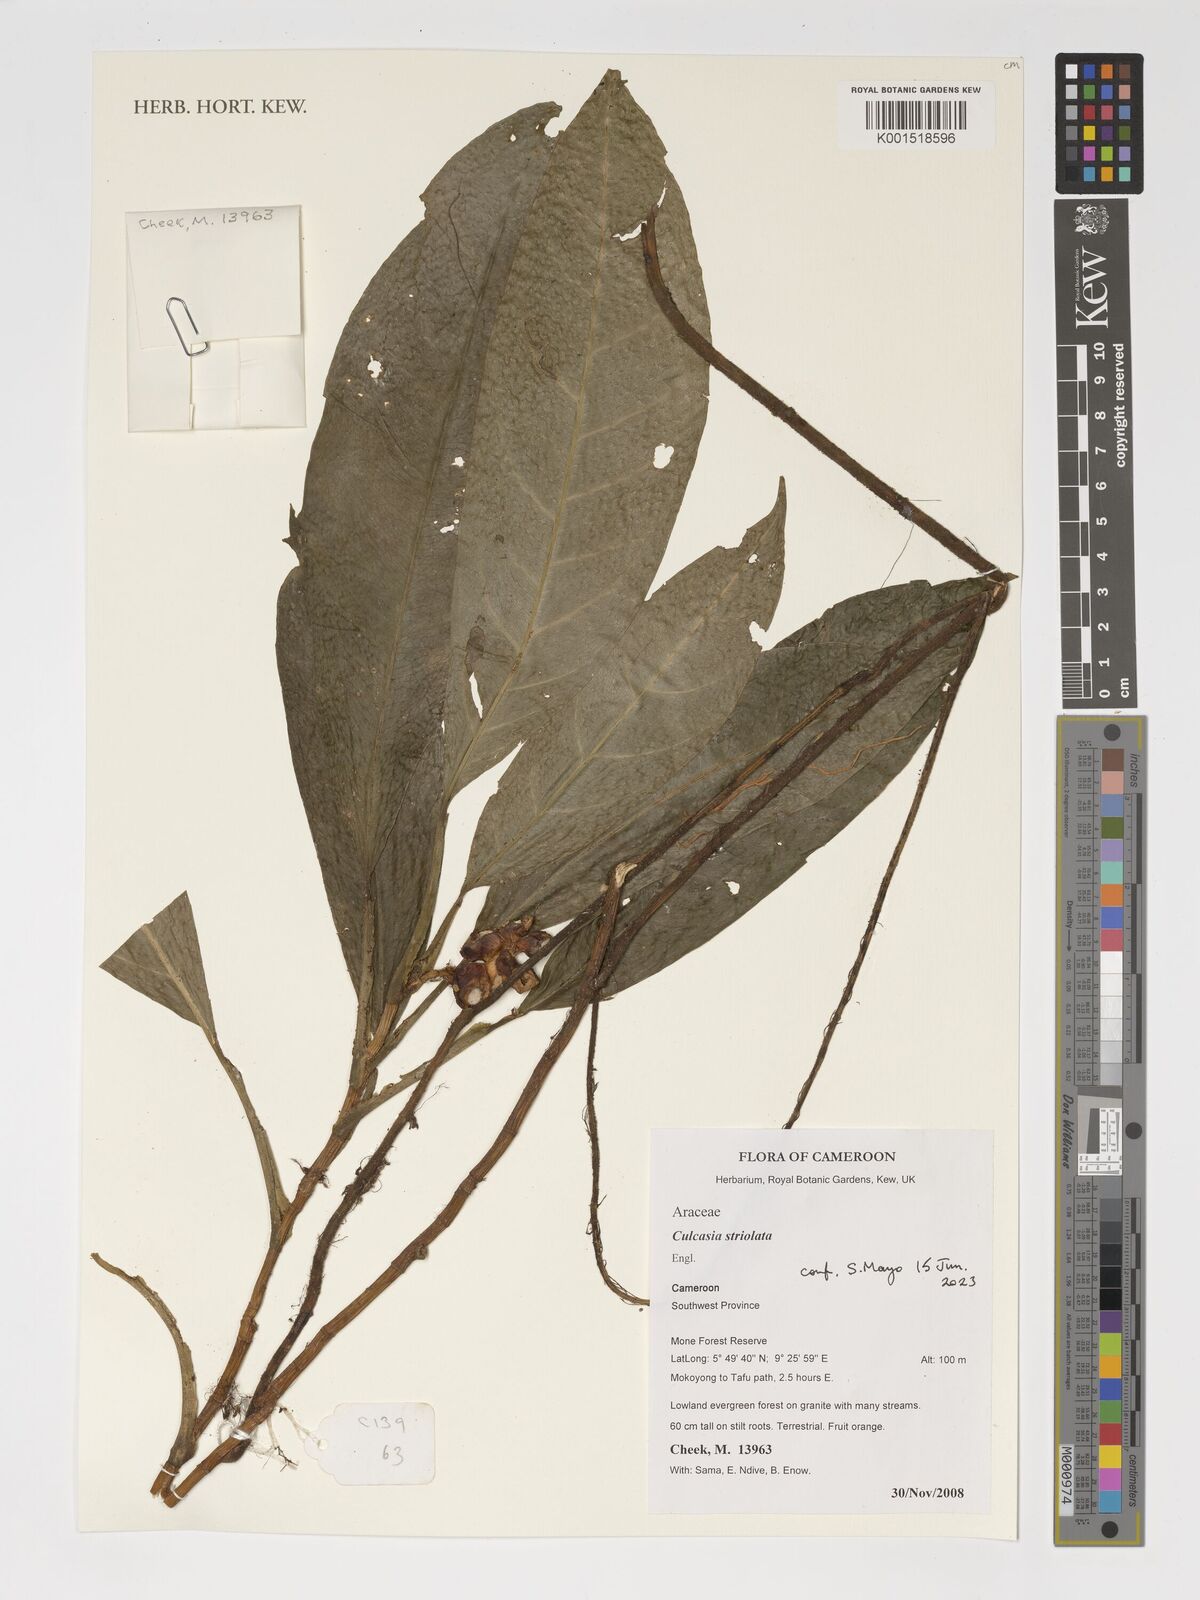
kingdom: Plantae
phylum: Tracheophyta
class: Liliopsida
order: Alismatales
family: Araceae
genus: Culcasia
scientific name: Culcasia striolata
